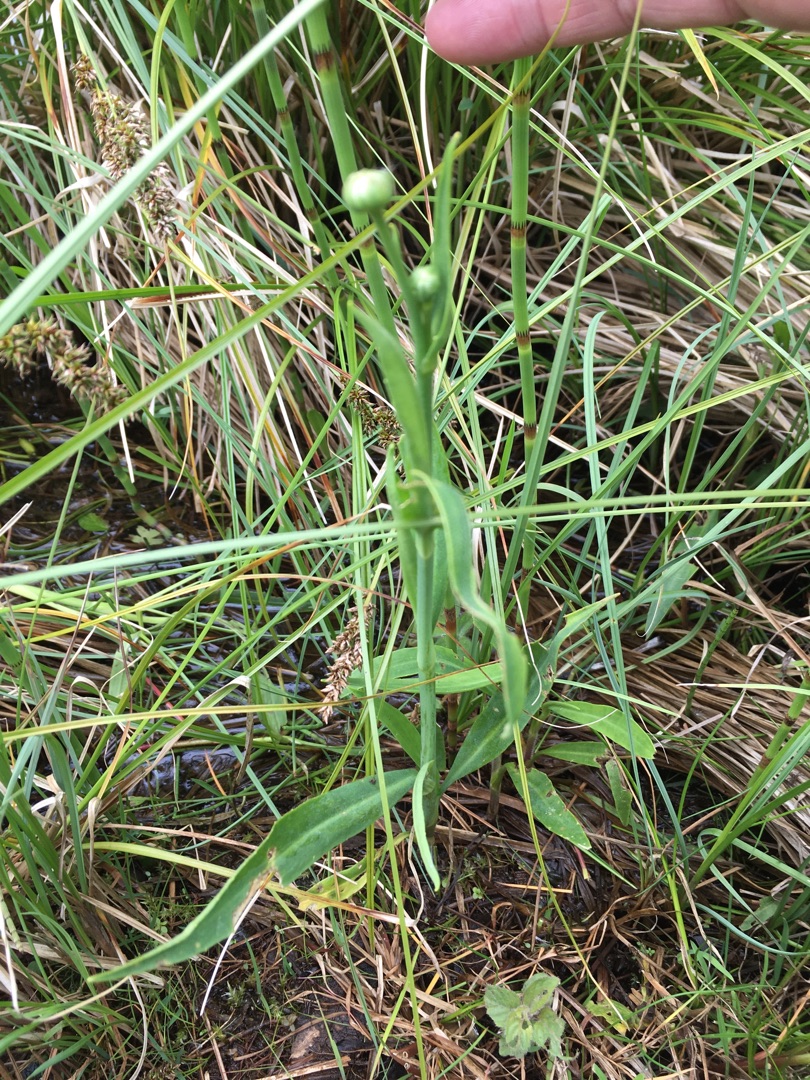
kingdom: Plantae
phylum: Tracheophyta
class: Magnoliopsida
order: Ranunculales
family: Ranunculaceae
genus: Ranunculus
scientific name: Ranunculus lingua
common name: Langbladet ranunkel
